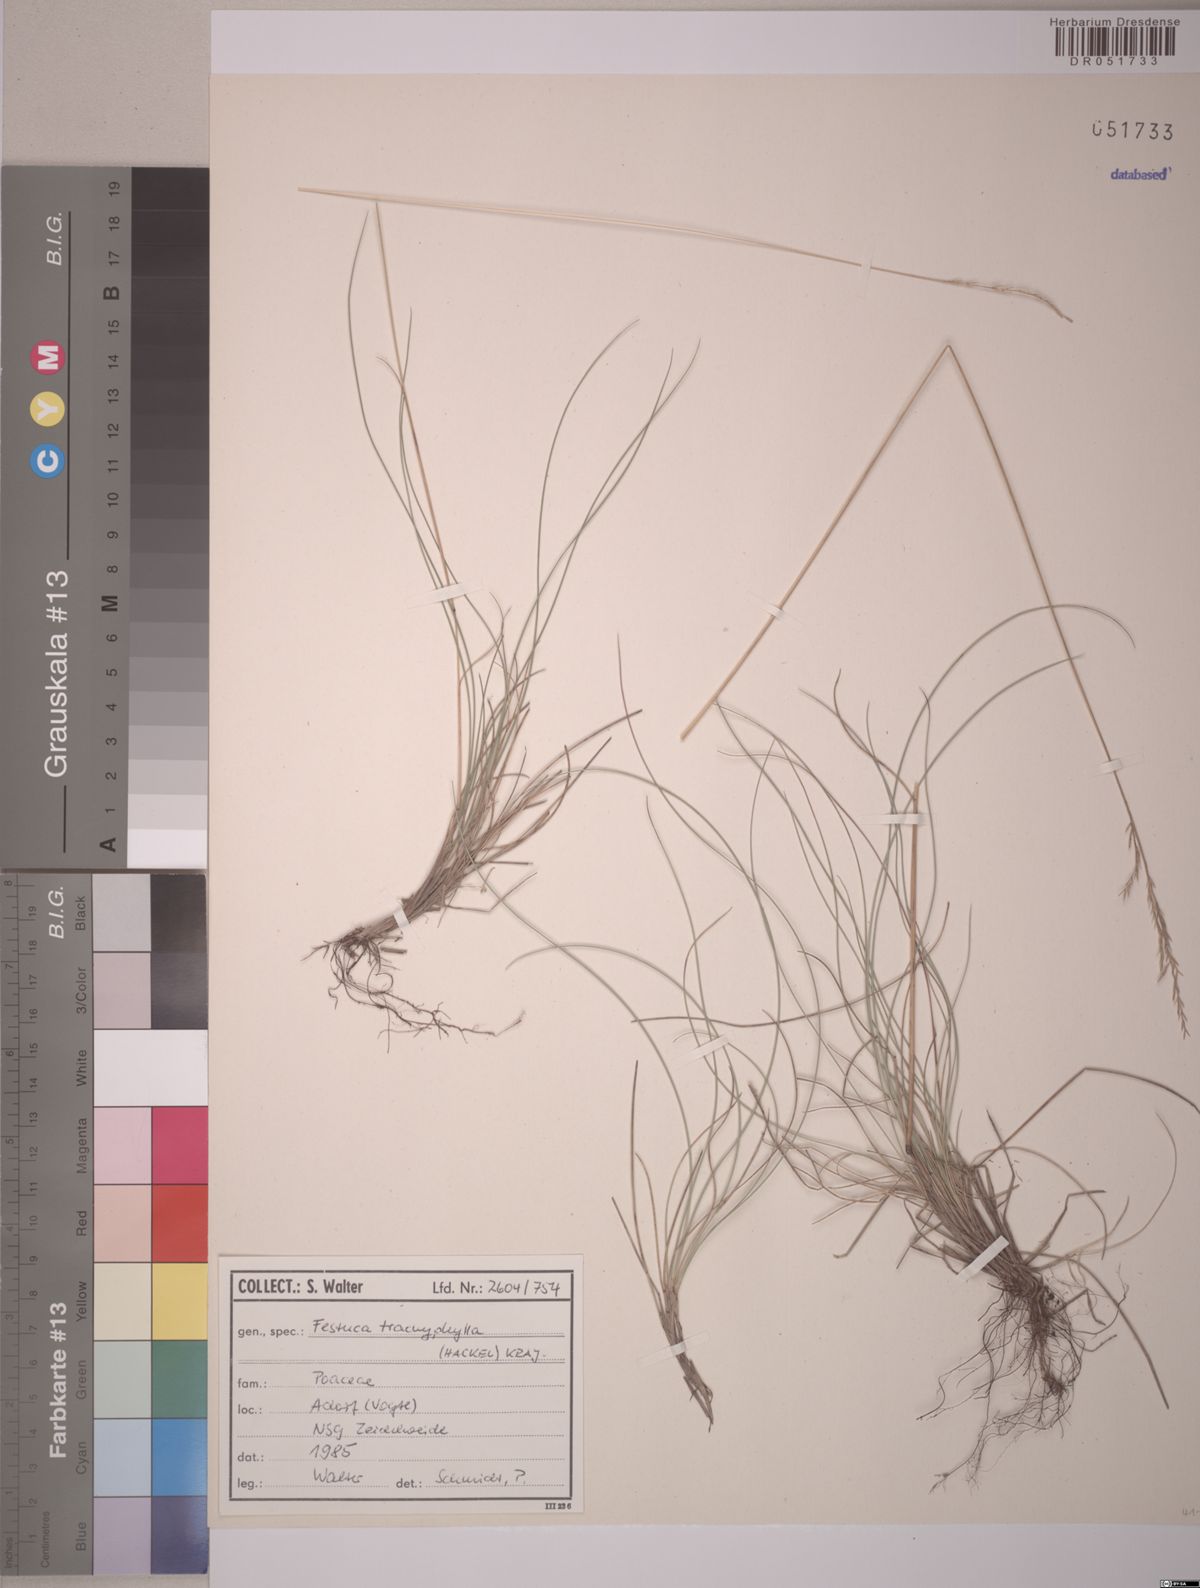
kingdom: Plantae
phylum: Tracheophyta
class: Liliopsida
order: Poales
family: Poaceae
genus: Festuca
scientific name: Festuca trachyphylla
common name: Hard fescue
